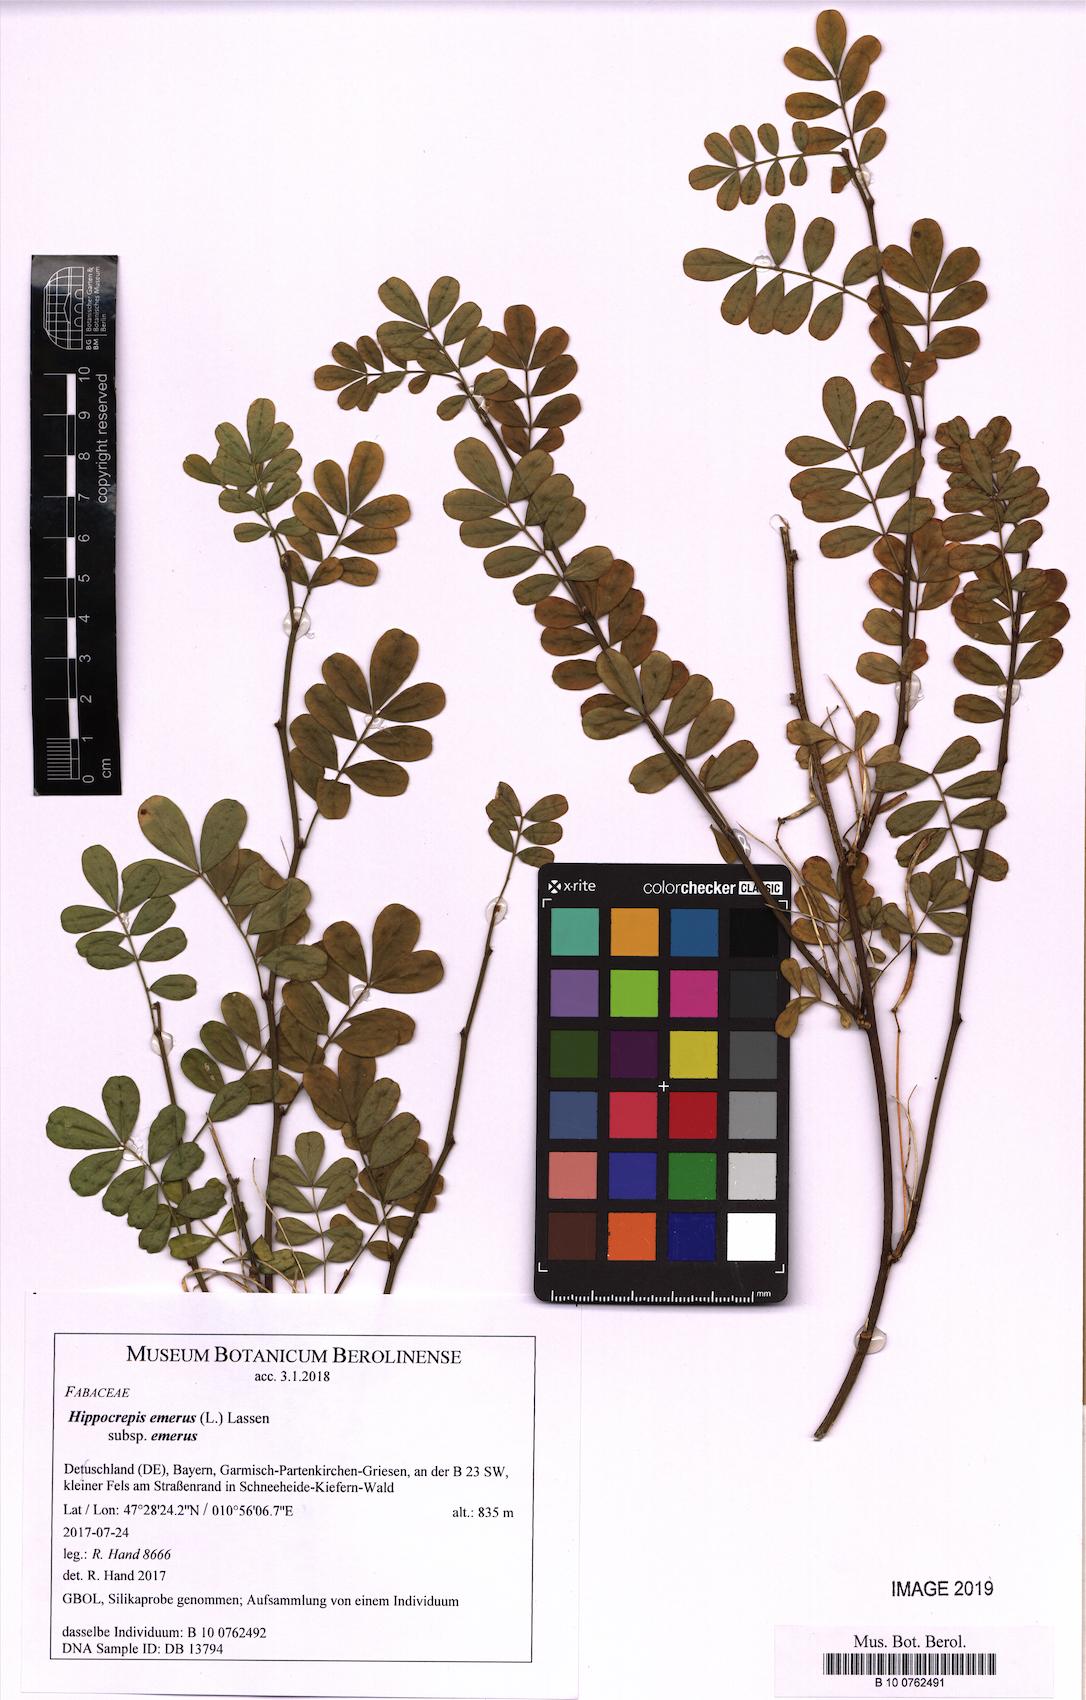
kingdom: Plantae
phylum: Tracheophyta
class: Magnoliopsida
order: Fabales
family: Fabaceae
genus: Hippocrepis
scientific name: Hippocrepis emerus
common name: Scorpion senna
